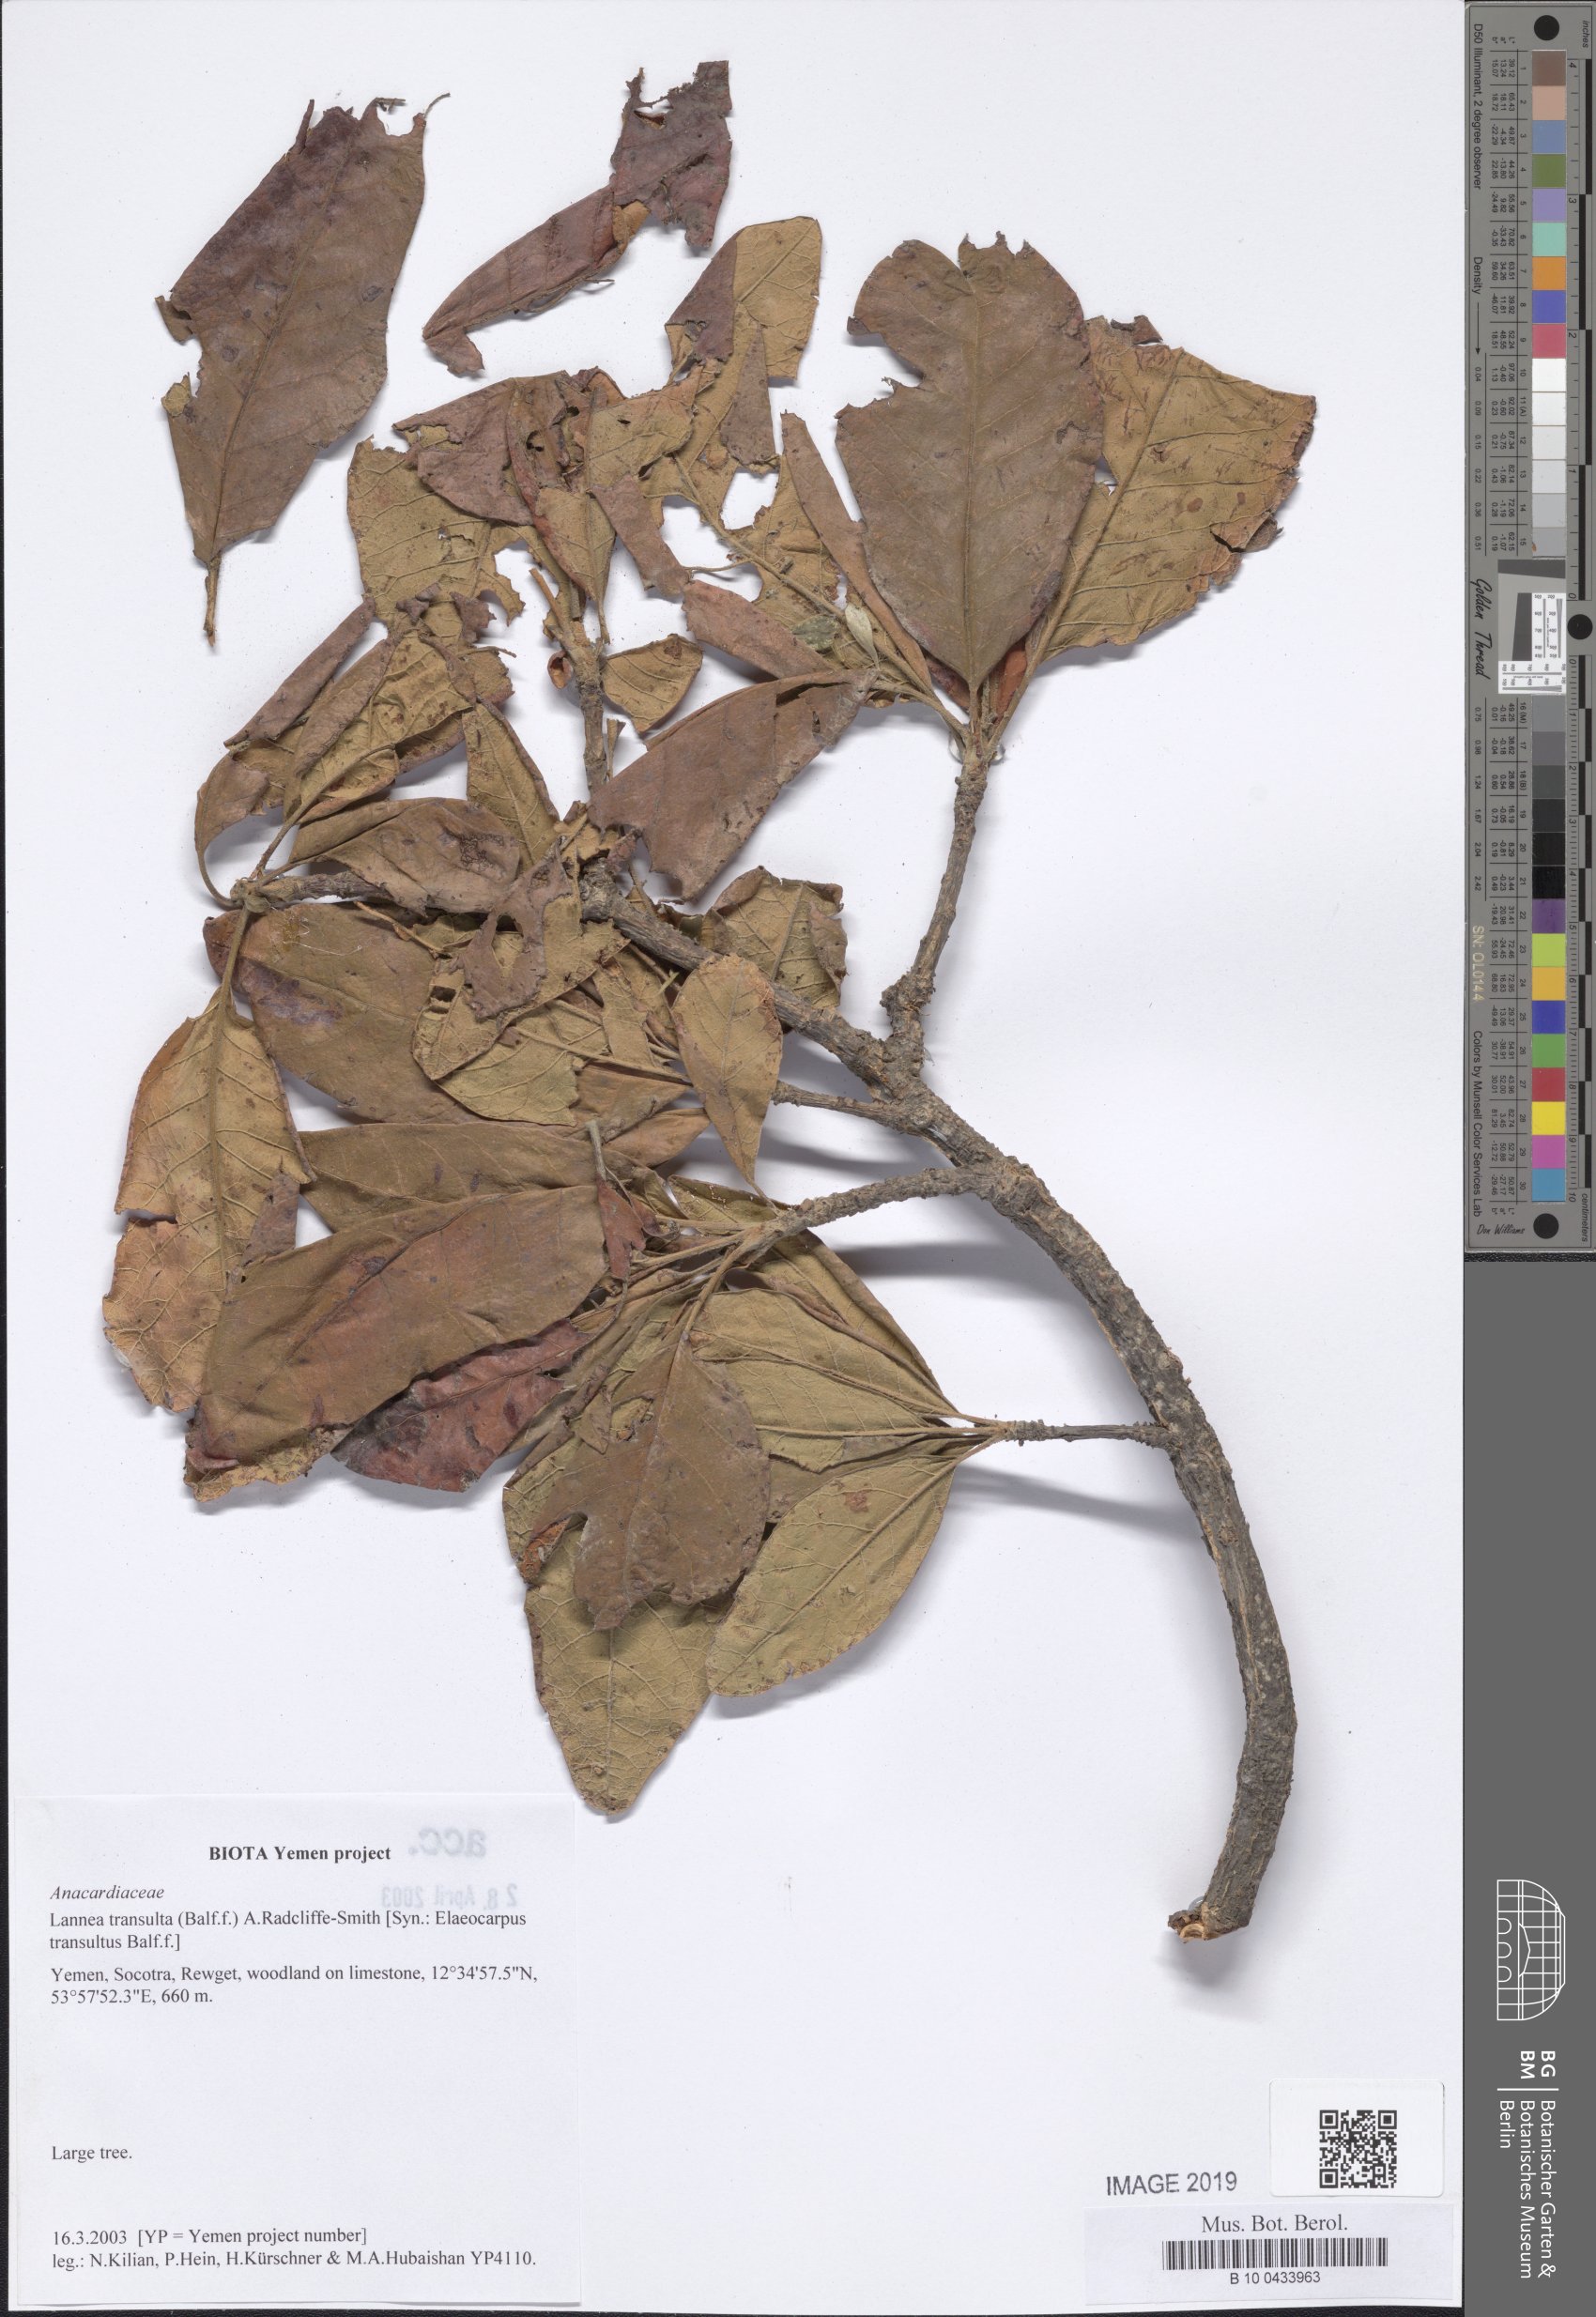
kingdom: Plantae
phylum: Tracheophyta
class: Magnoliopsida
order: Sapindales
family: Anacardiaceae
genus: Lannea
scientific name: Lannea transulta
